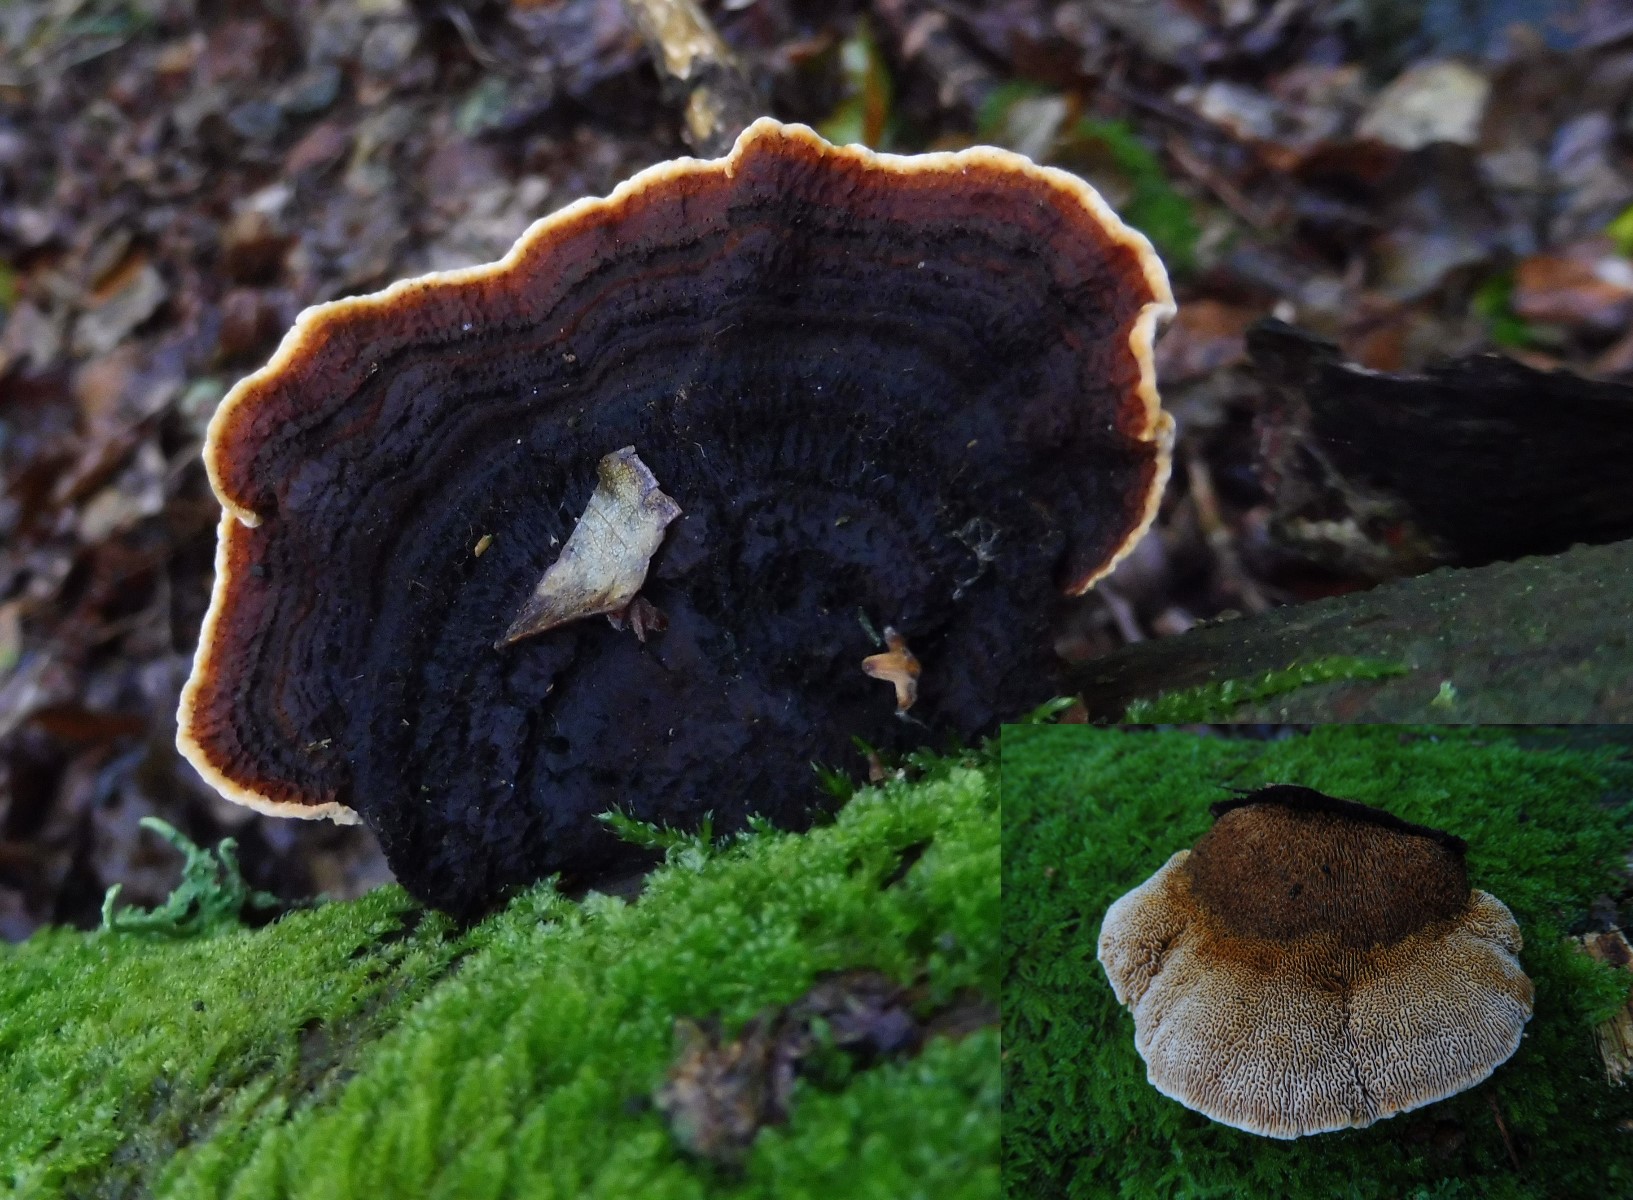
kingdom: Fungi
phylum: Basidiomycota
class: Agaricomycetes
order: Gloeophyllales
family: Gloeophyllaceae
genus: Gloeophyllum
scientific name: Gloeophyllum sepiarium
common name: fyrre-korkhat
